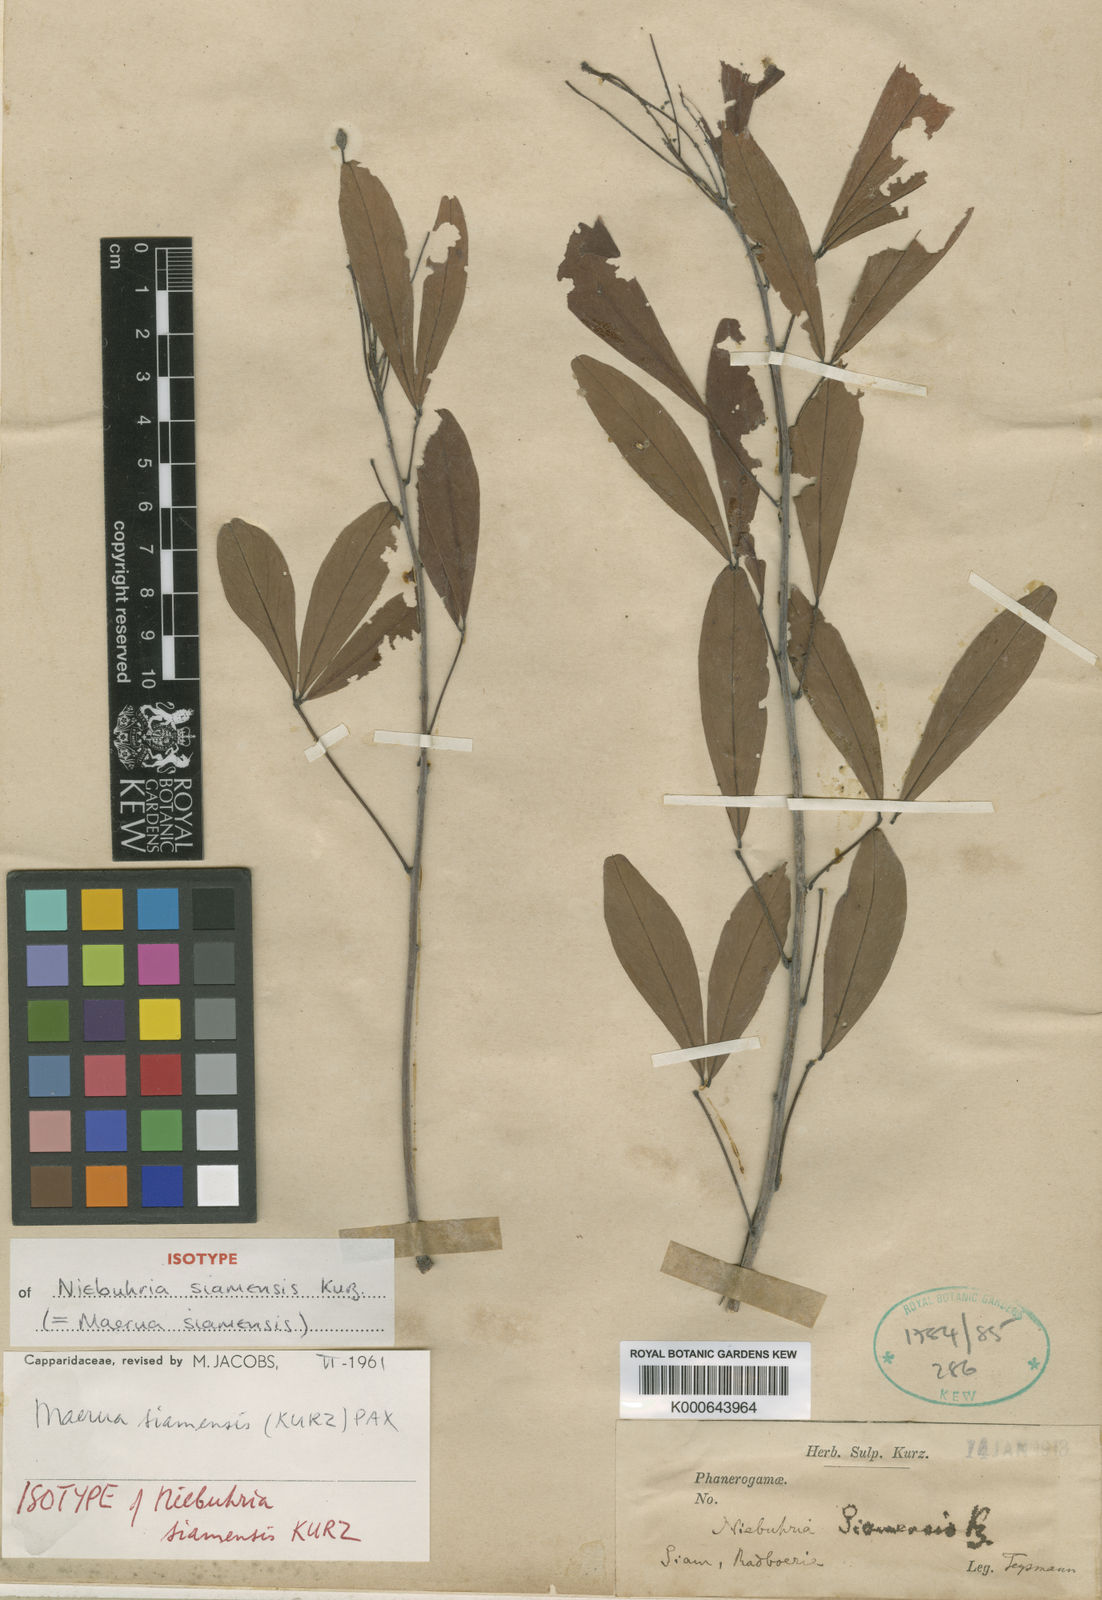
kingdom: Plantae
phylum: Tracheophyta
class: Magnoliopsida
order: Brassicales
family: Capparaceae
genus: Maerua
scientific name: Maerua siamensis
